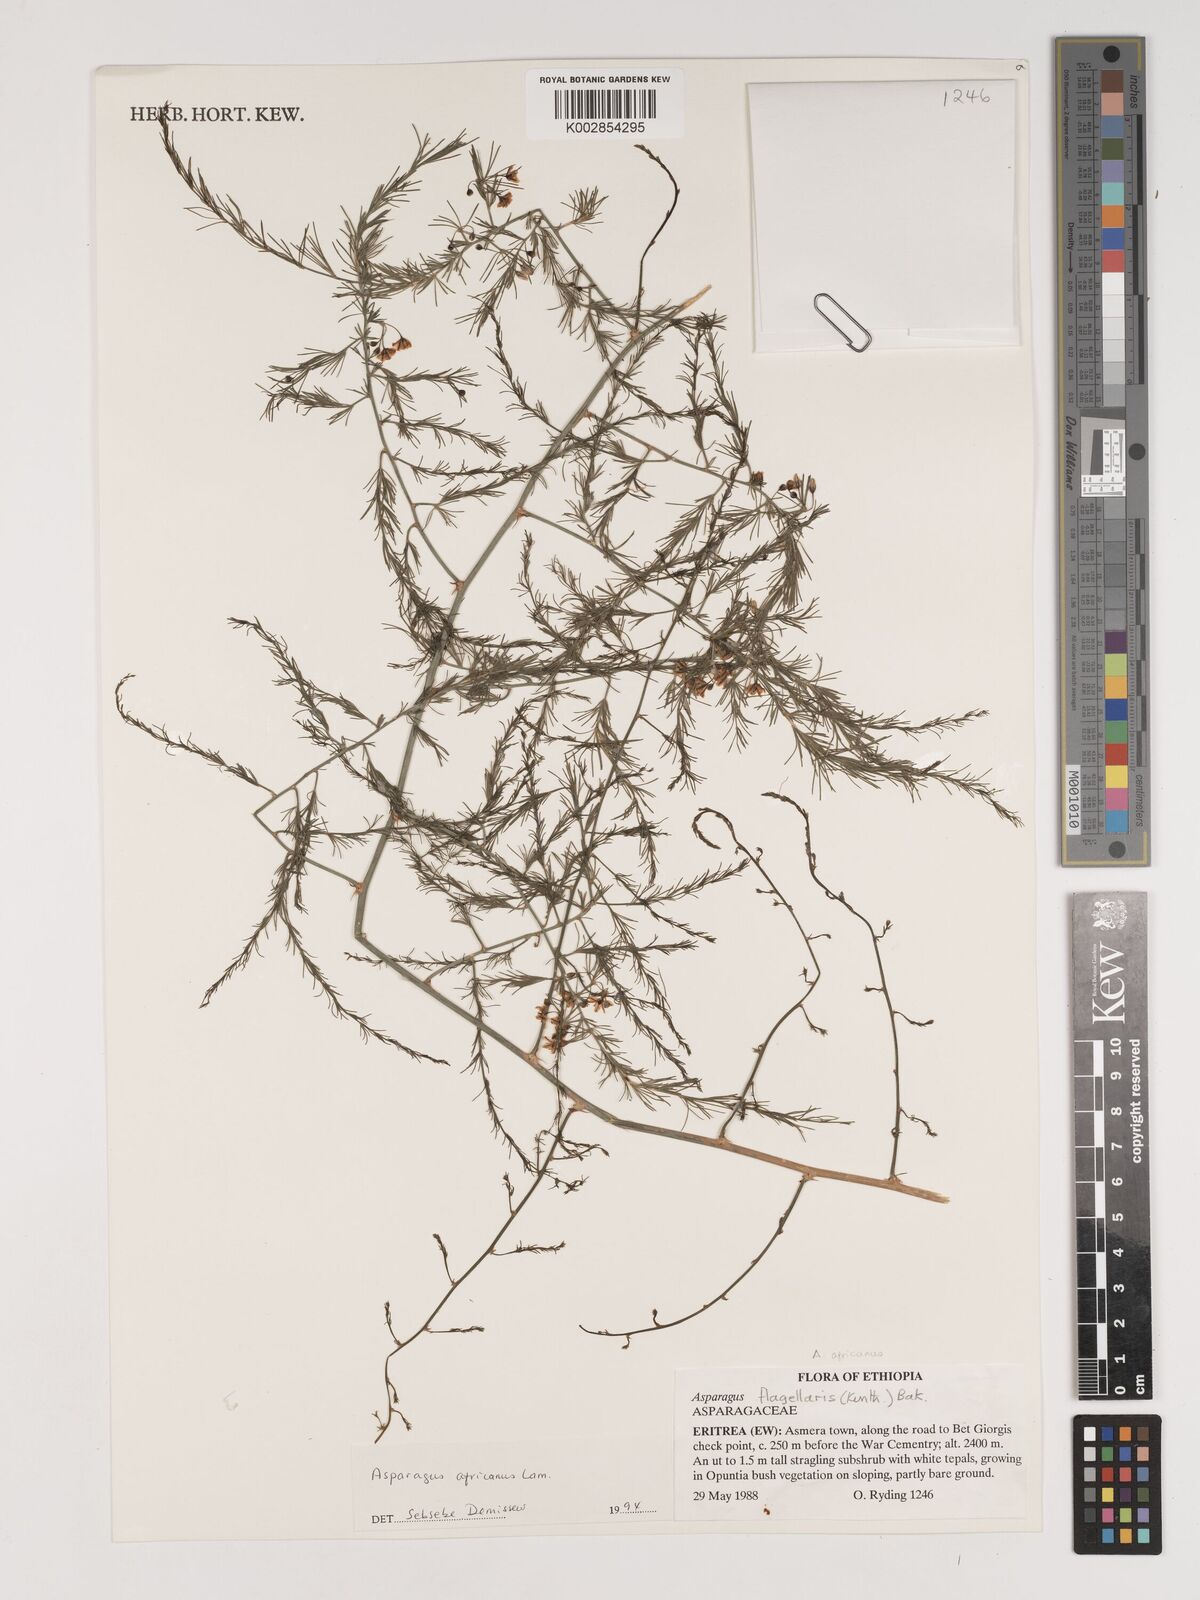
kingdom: Plantae
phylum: Tracheophyta
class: Liliopsida
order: Asparagales
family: Asparagaceae
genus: Asparagus
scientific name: Asparagus africanus
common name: Asparagus-fern
